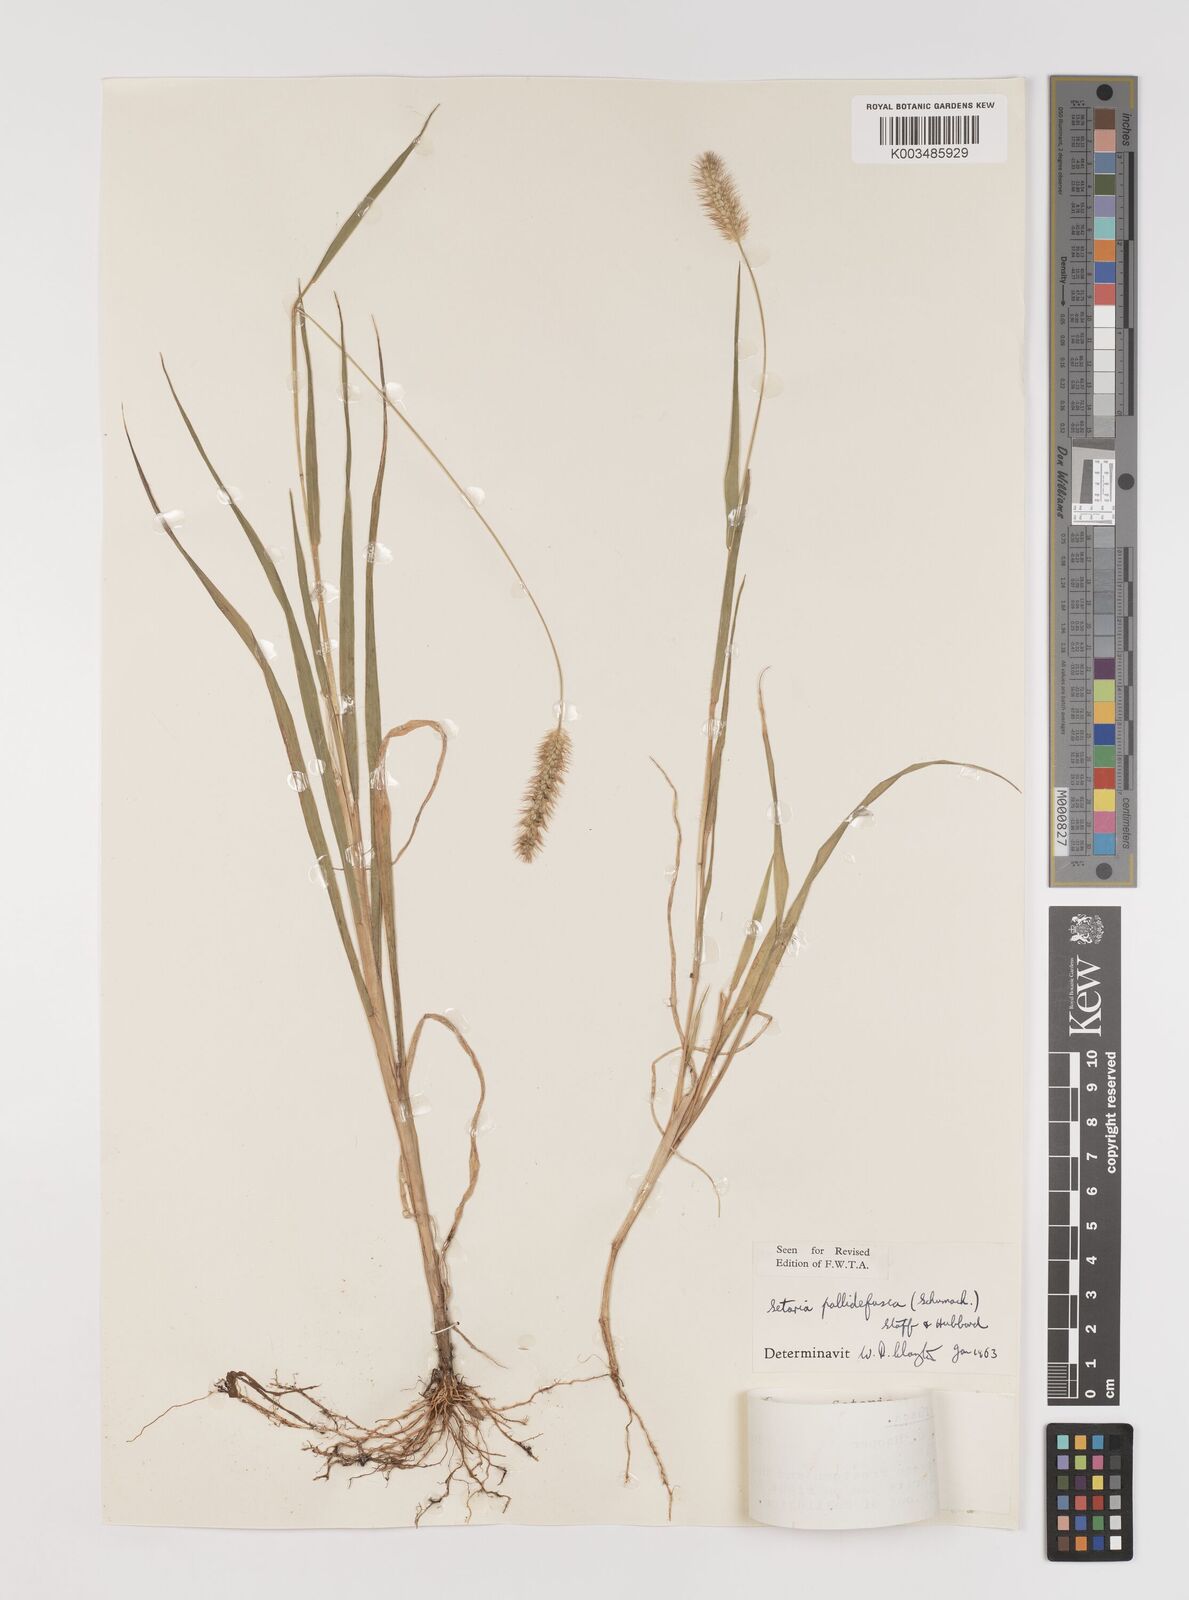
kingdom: Plantae
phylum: Tracheophyta
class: Liliopsida
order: Poales
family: Poaceae
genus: Setaria
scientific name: Setaria pumila
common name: Yellow bristle-grass
